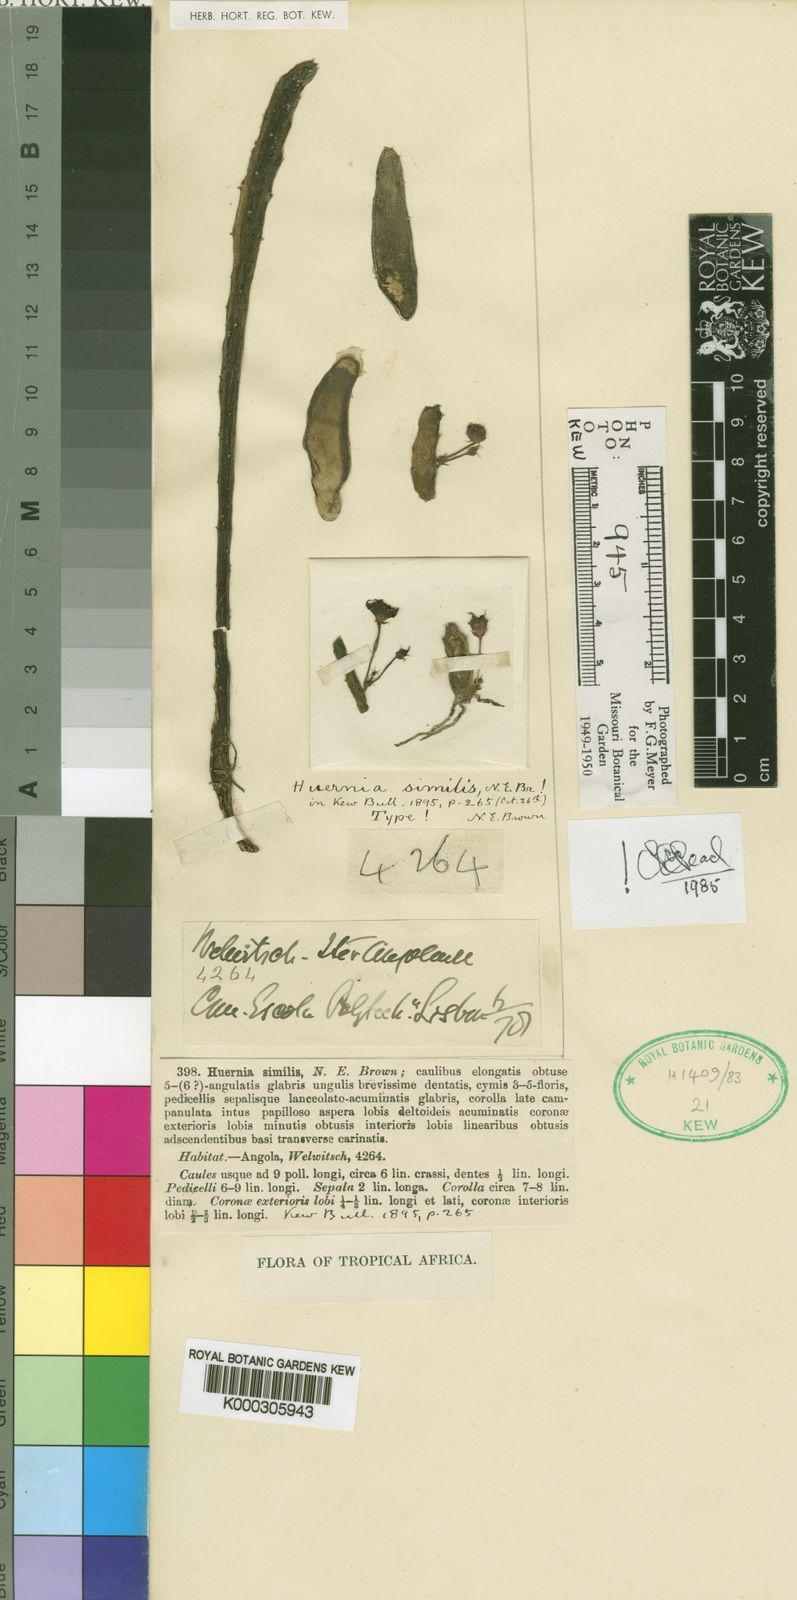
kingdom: Plantae
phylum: Tracheophyta
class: Magnoliopsida
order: Gentianales
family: Apocynaceae
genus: Ceropegia
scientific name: Ceropegia similior
